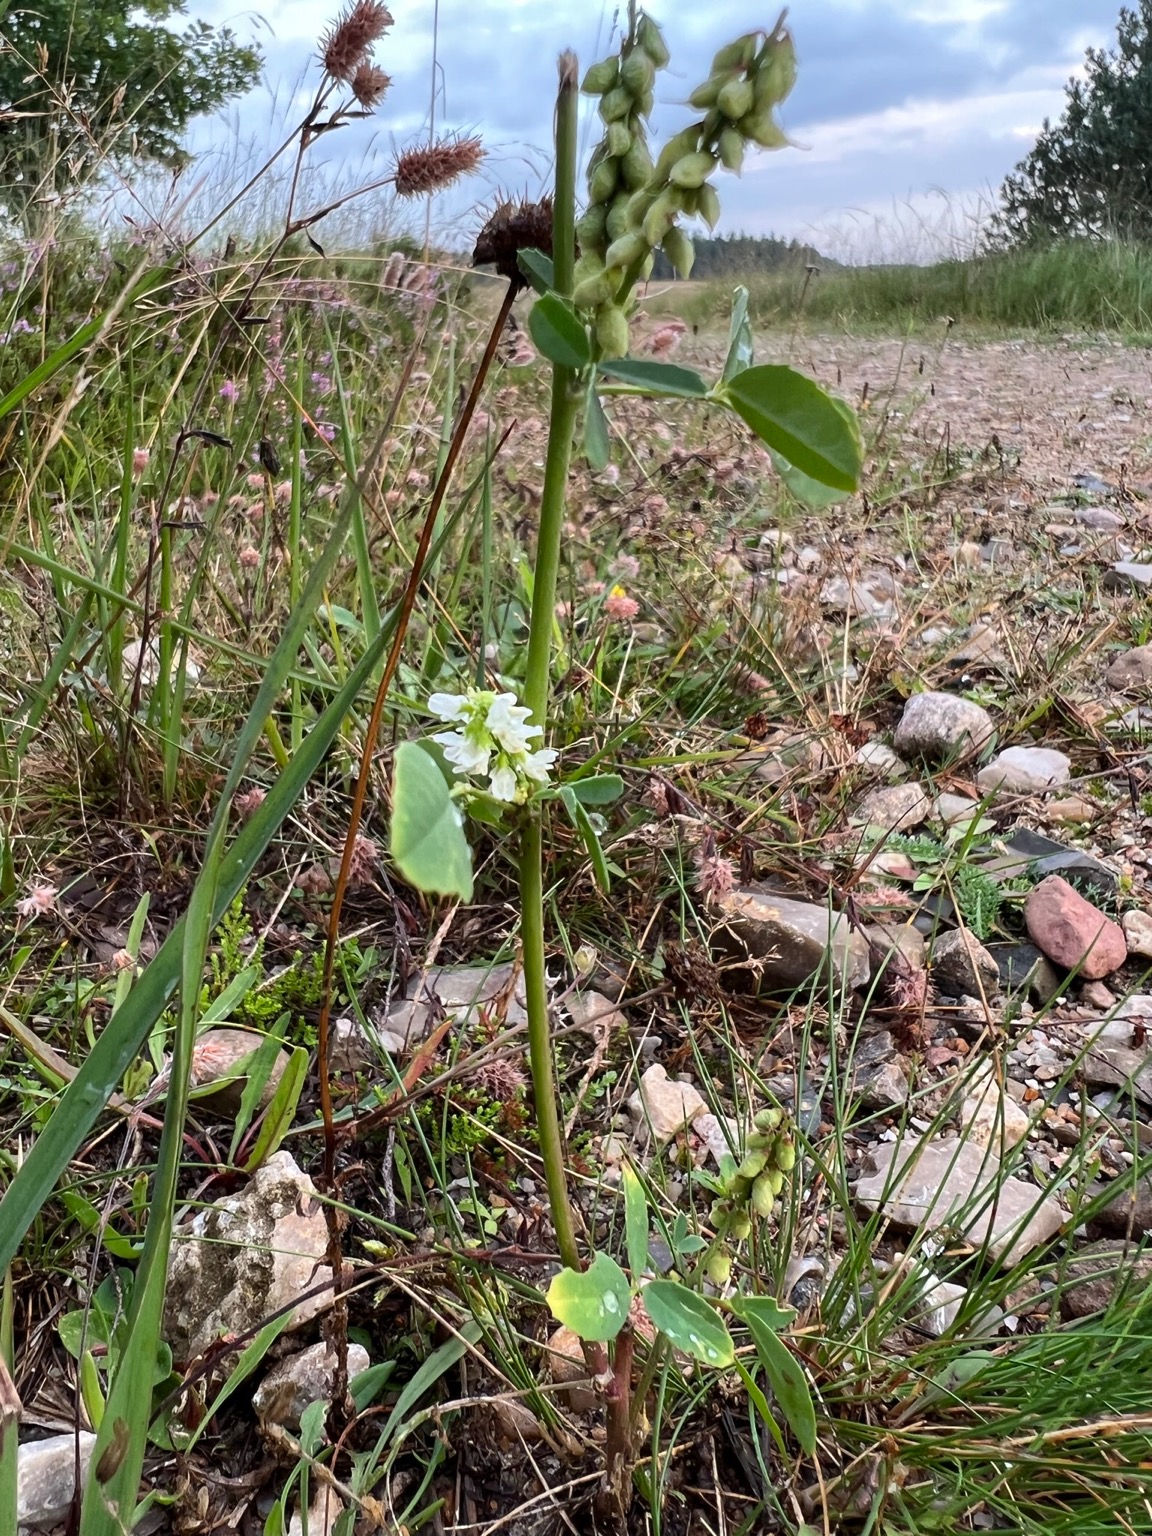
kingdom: Plantae
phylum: Tracheophyta
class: Magnoliopsida
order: Fabales
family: Fabaceae
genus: Melilotus
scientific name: Melilotus albus
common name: Hvid stenkløver
